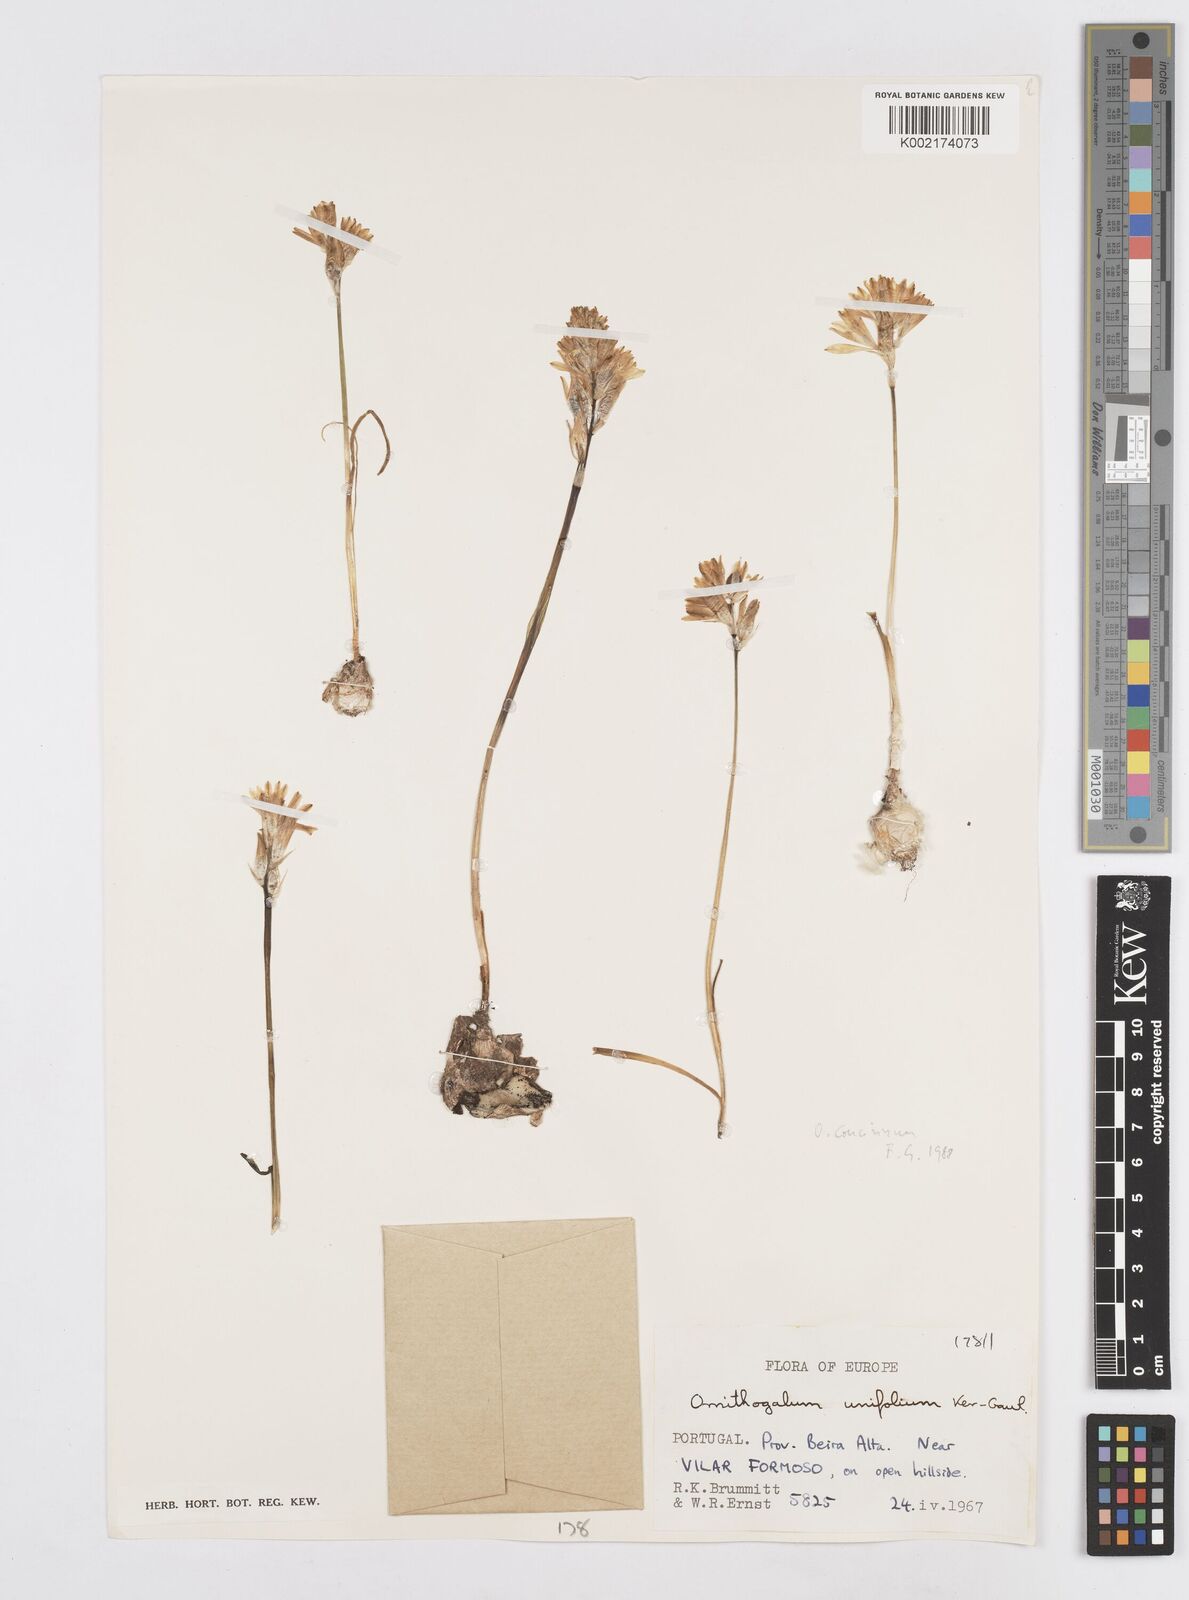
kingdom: Plantae
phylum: Tracheophyta
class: Liliopsida
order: Asparagales
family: Asparagaceae
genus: Ornithogalum
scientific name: Ornithogalum broteroi
